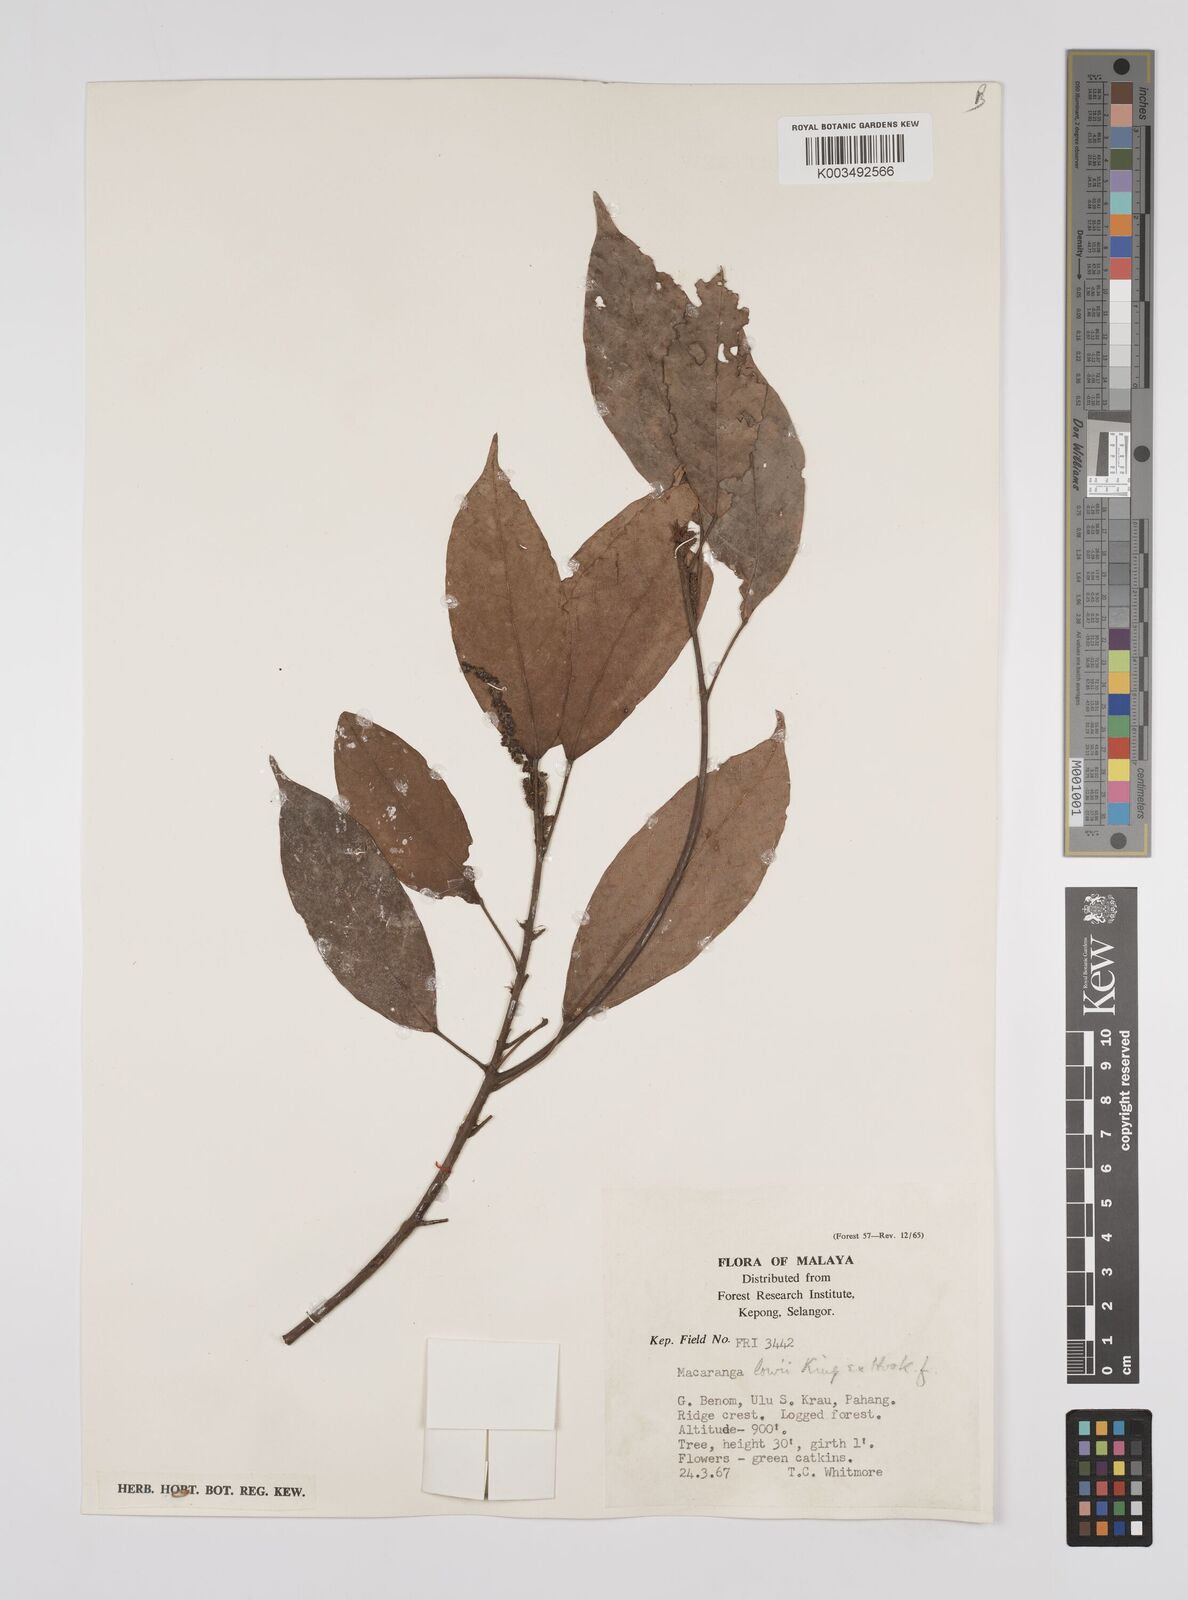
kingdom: Plantae
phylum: Tracheophyta
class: Magnoliopsida
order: Malpighiales
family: Euphorbiaceae
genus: Macaranga
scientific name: Macaranga lowii
